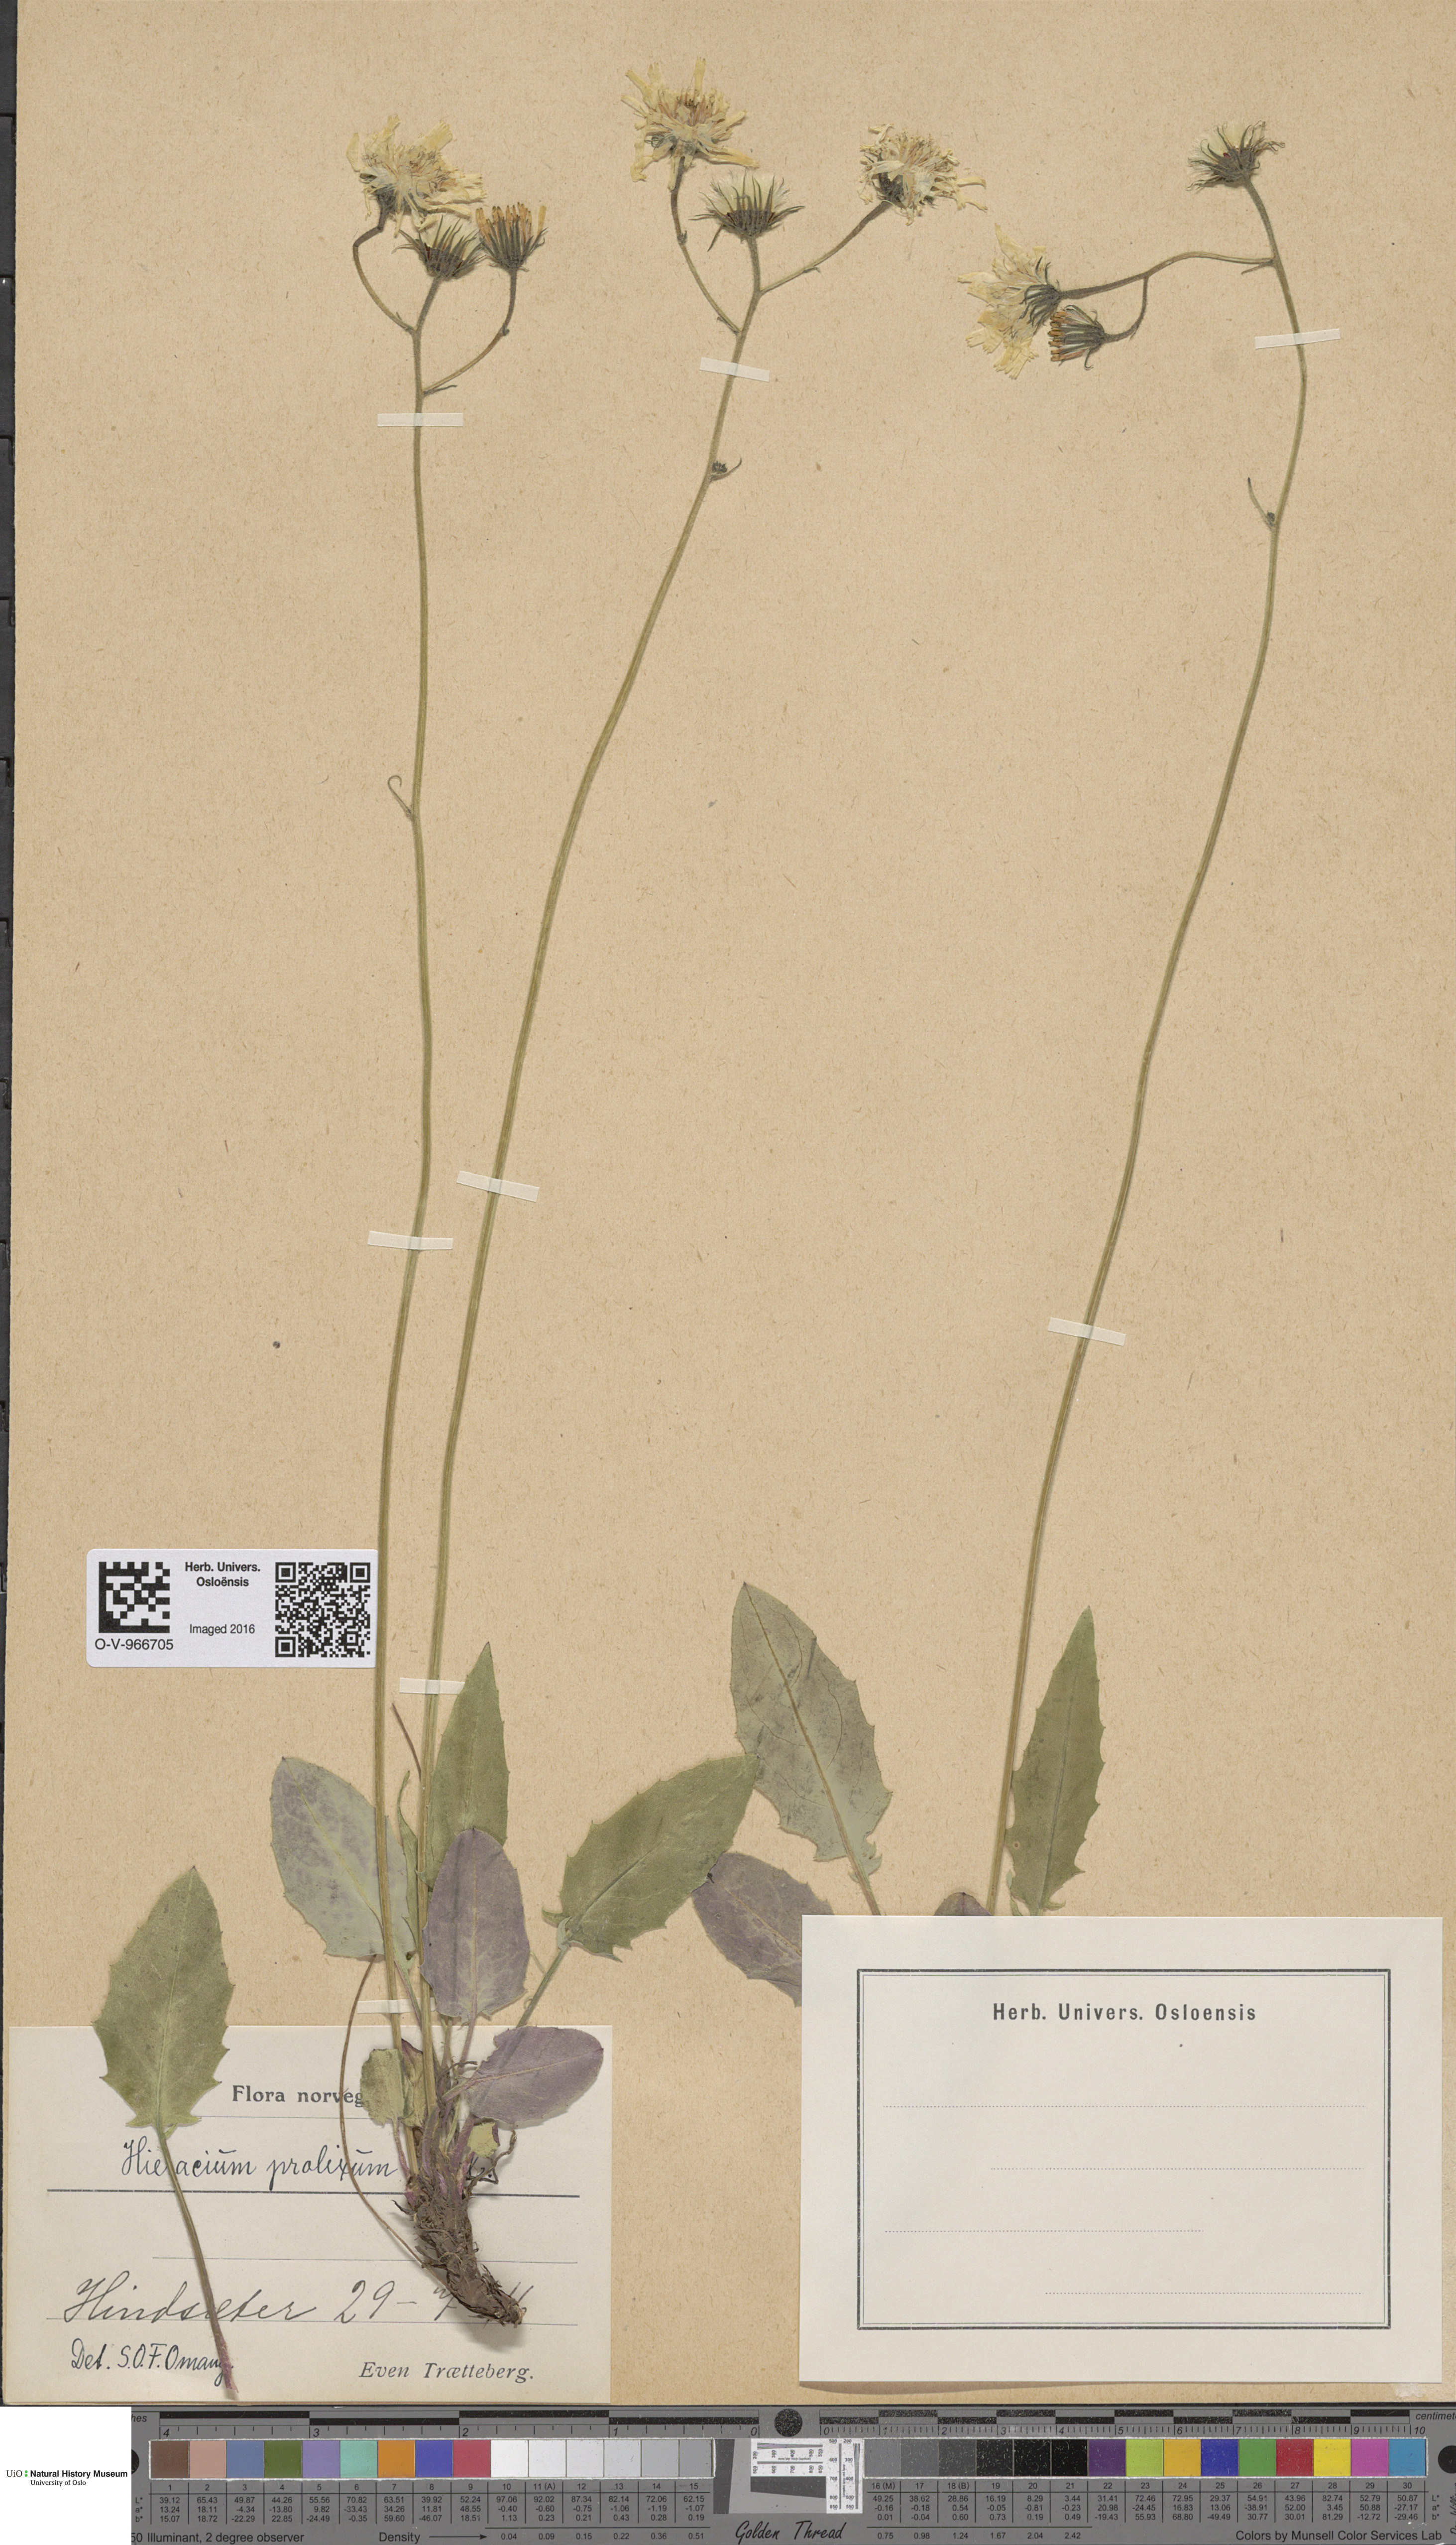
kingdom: Plantae
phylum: Tracheophyta
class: Magnoliopsida
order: Asterales
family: Asteraceae
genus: Hieracium
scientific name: Hieracium bifidum
